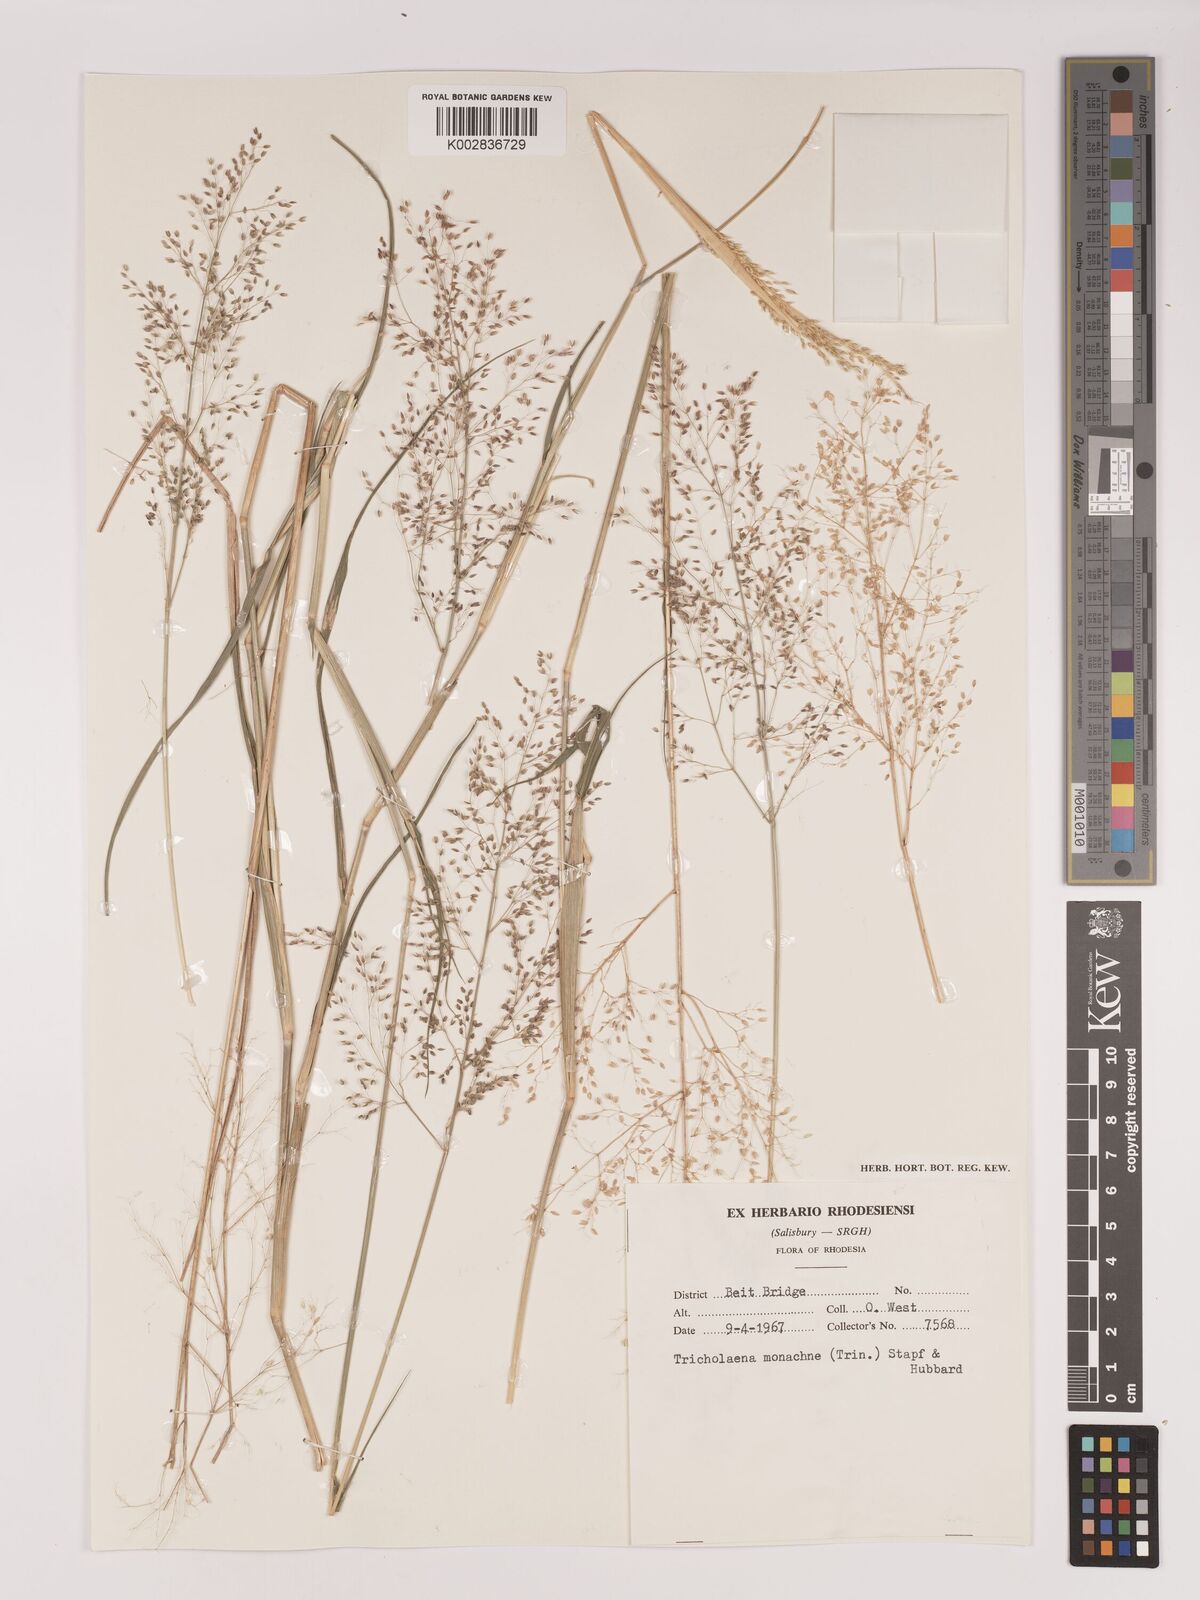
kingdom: Plantae
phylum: Tracheophyta
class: Liliopsida
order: Poales
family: Poaceae
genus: Tricholaena
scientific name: Tricholaena monachne
